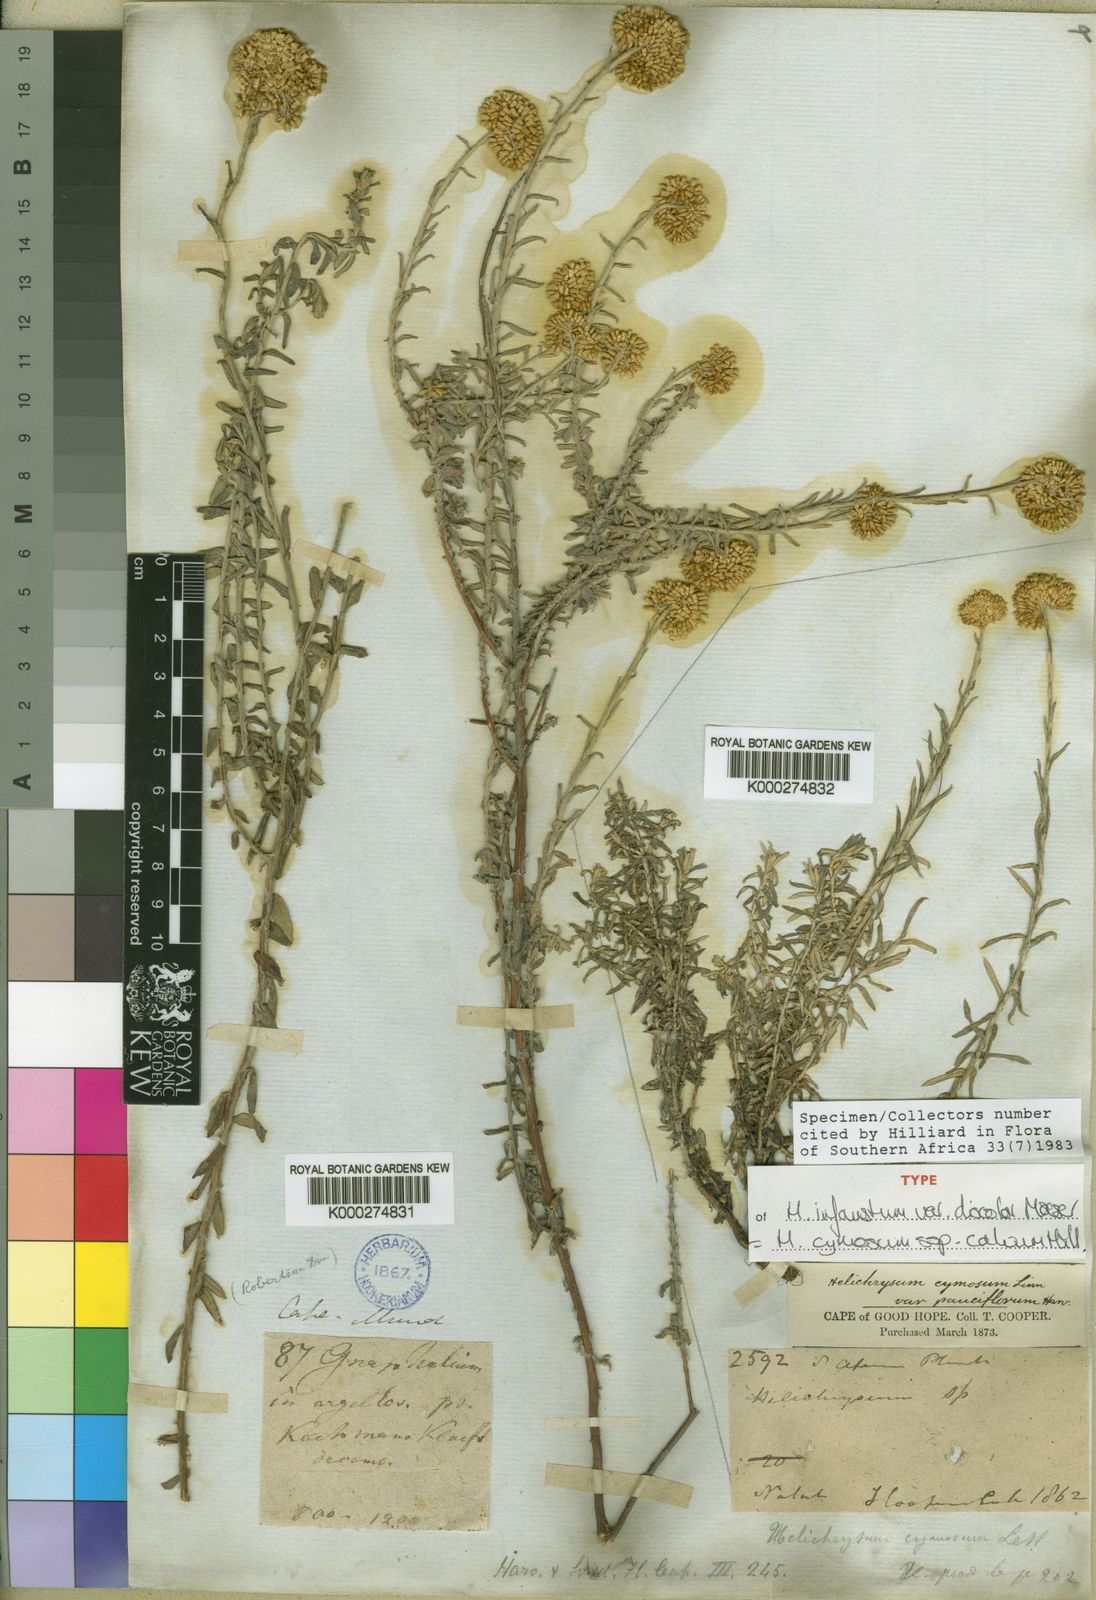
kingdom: Plantae
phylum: Tracheophyta
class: Magnoliopsida
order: Asterales
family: Asteraceae
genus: Helichrysum
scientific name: Helichrysum cymosum
